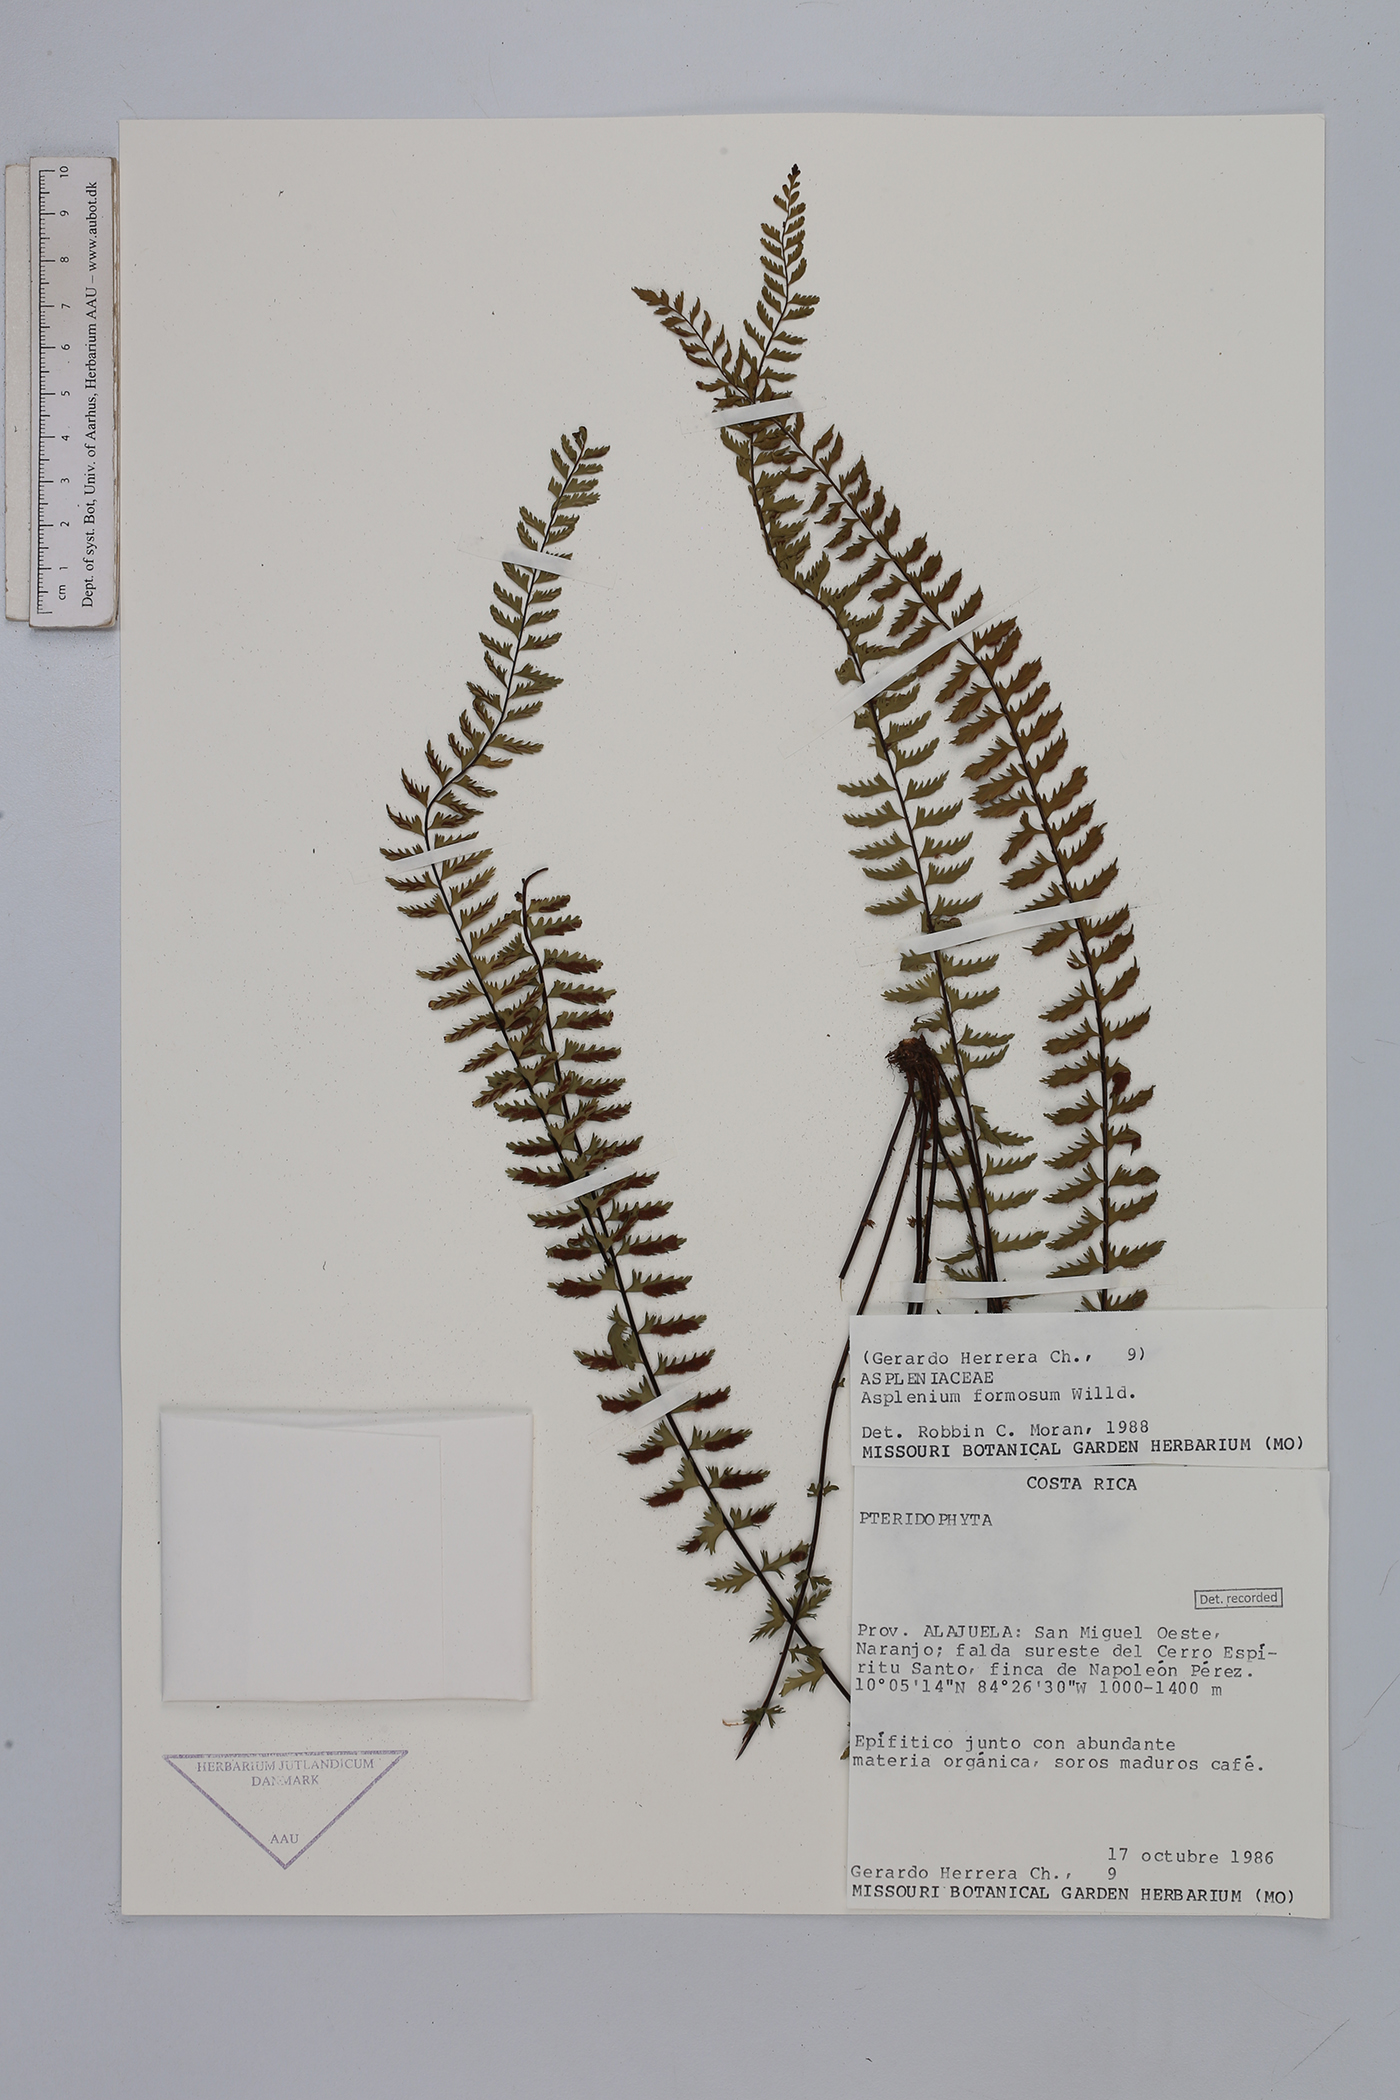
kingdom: Plantae
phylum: Tracheophyta
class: Polypodiopsida
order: Polypodiales
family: Aspleniaceae
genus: Asplenium
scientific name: Asplenium formosum
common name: Showy spleenwort
